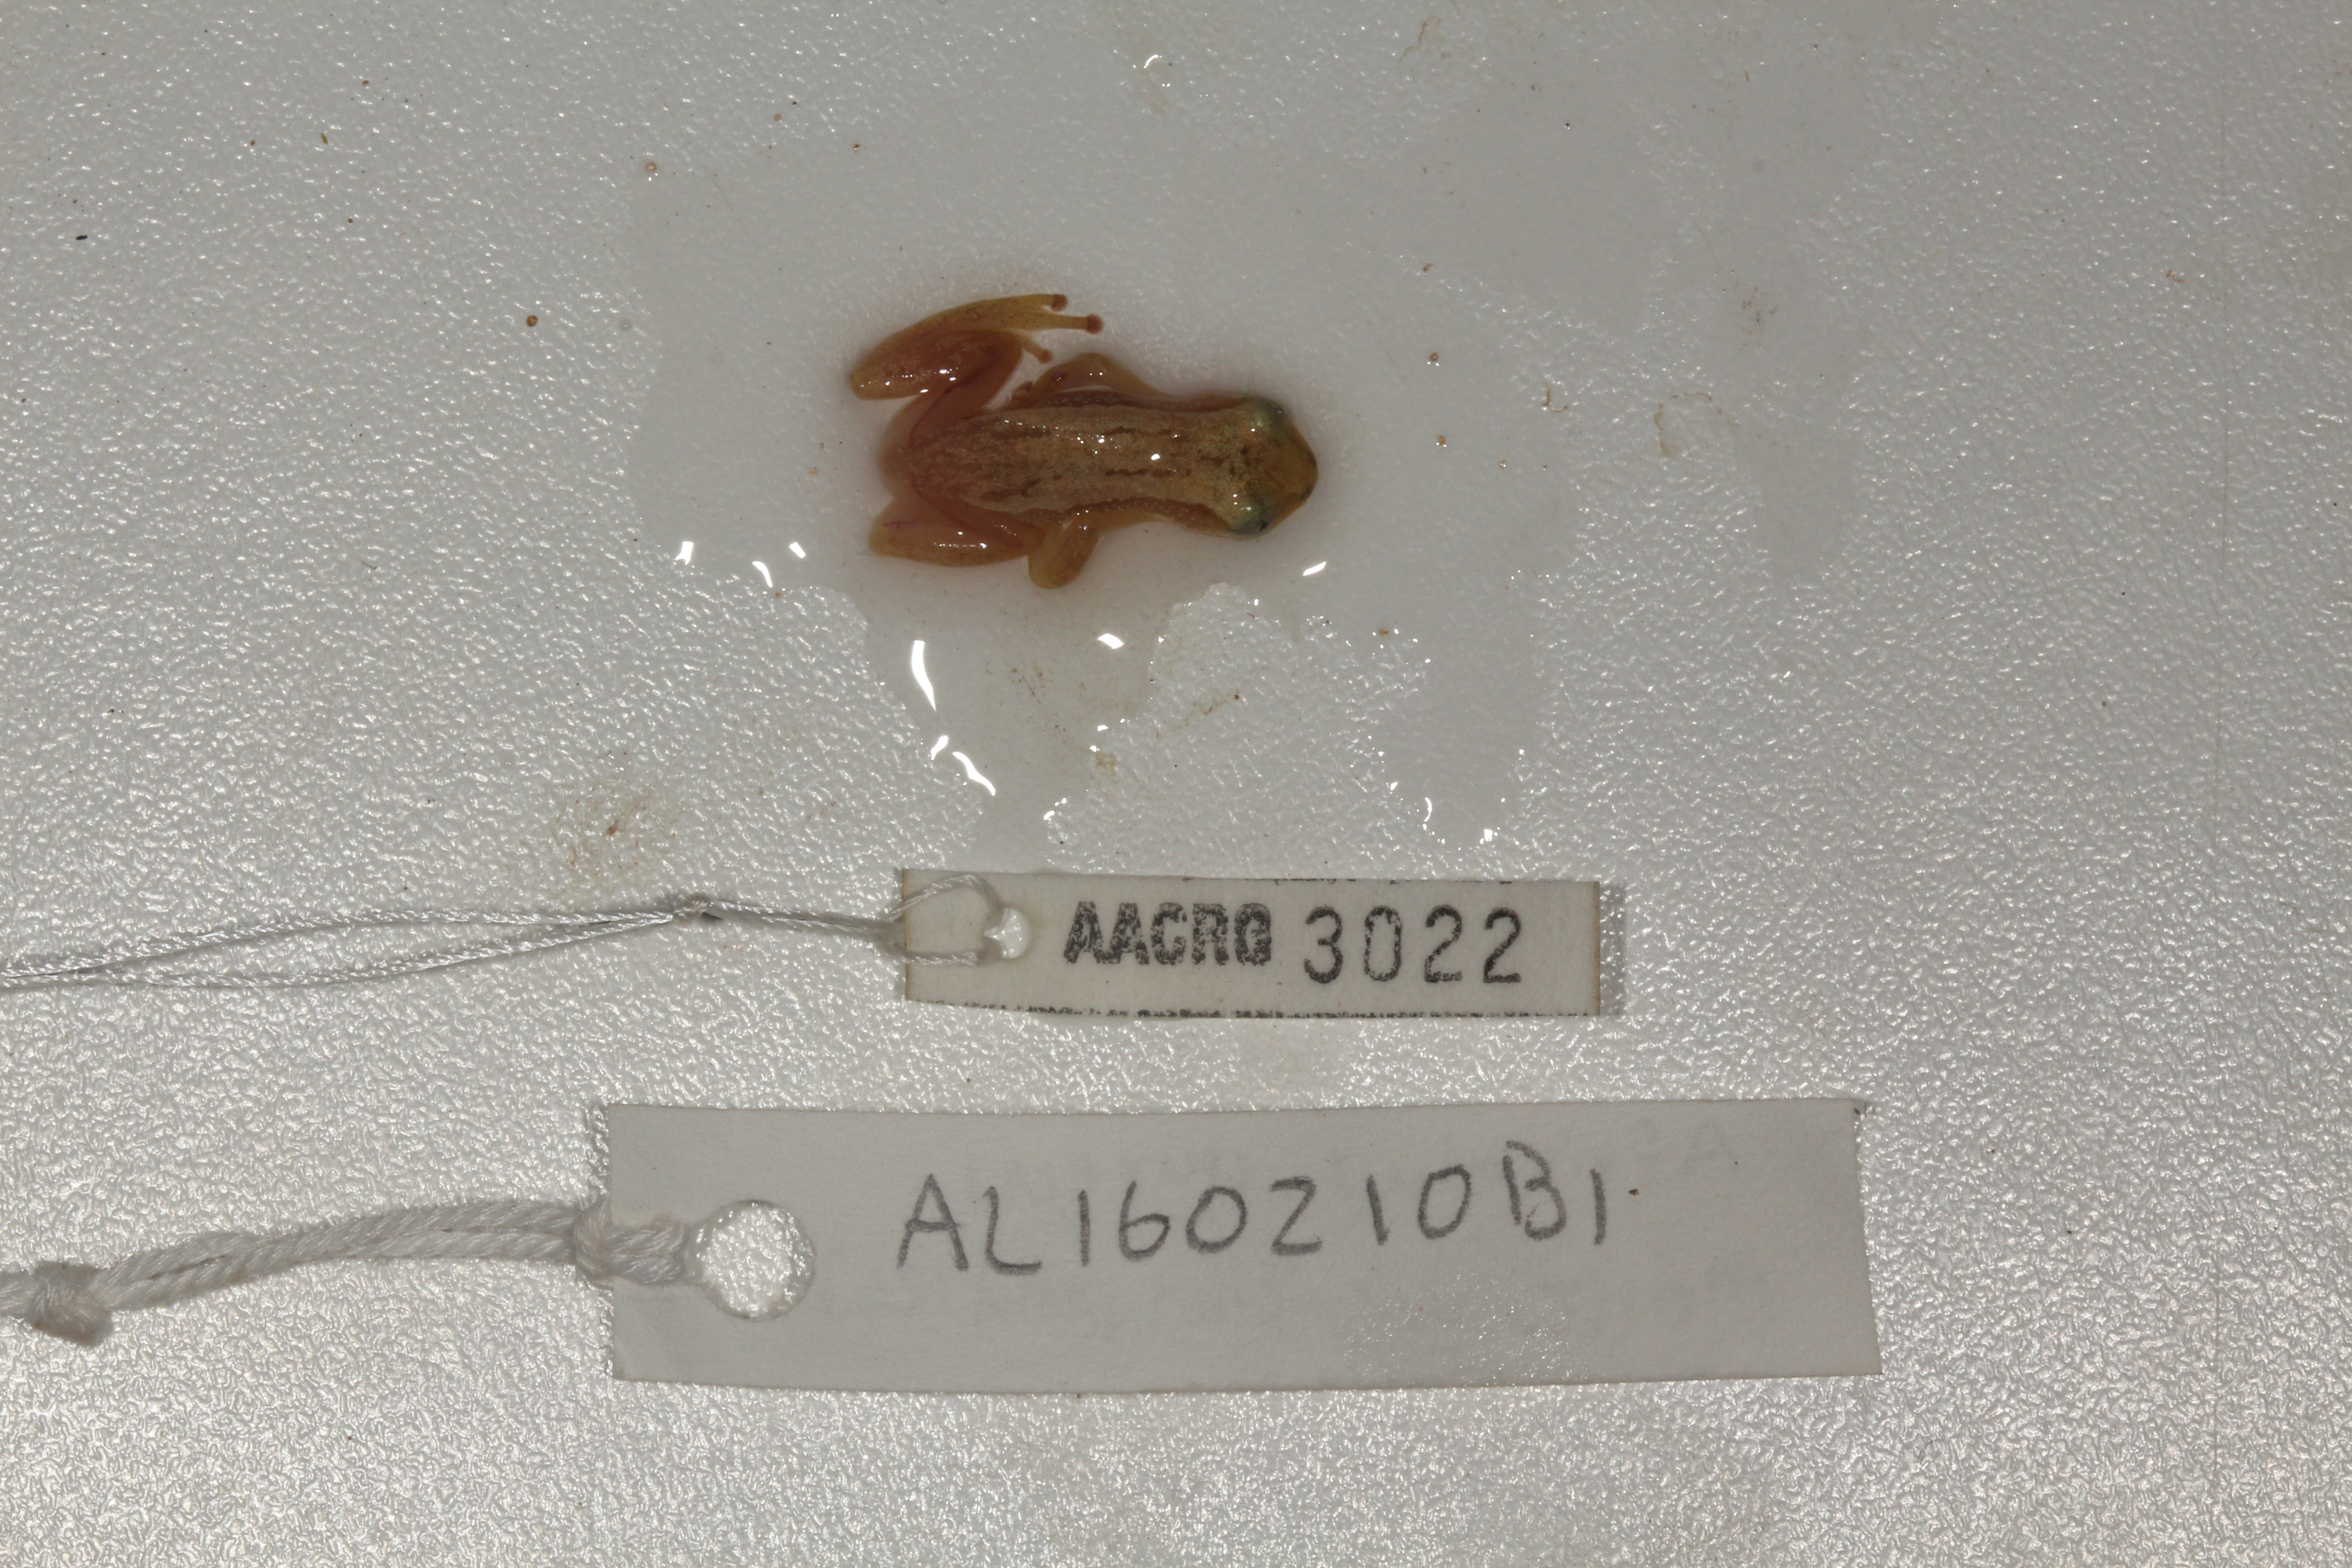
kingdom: Animalia
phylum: Chordata
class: Amphibia
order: Anura
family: Hyperoliidae
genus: Afrixalus
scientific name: Afrixalus aureus
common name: Golden banana frog
